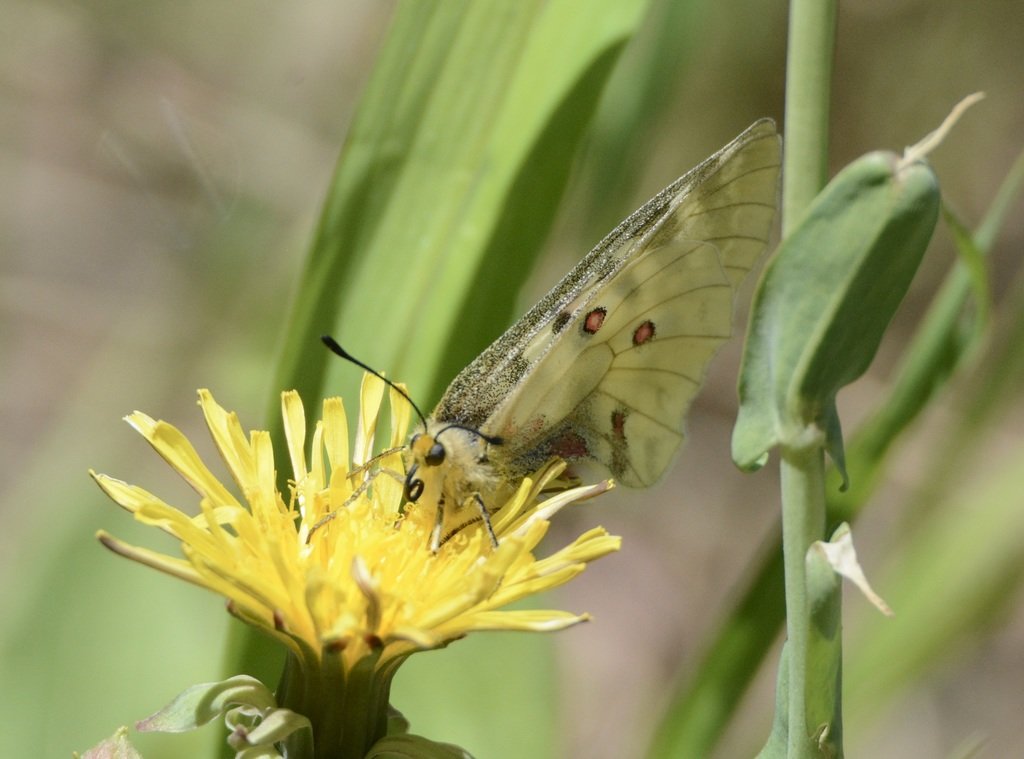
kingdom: Animalia
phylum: Arthropoda
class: Insecta
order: Lepidoptera
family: Papilionidae
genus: Parnassius
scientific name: Parnassius clodius
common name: Clodius Parnassian
